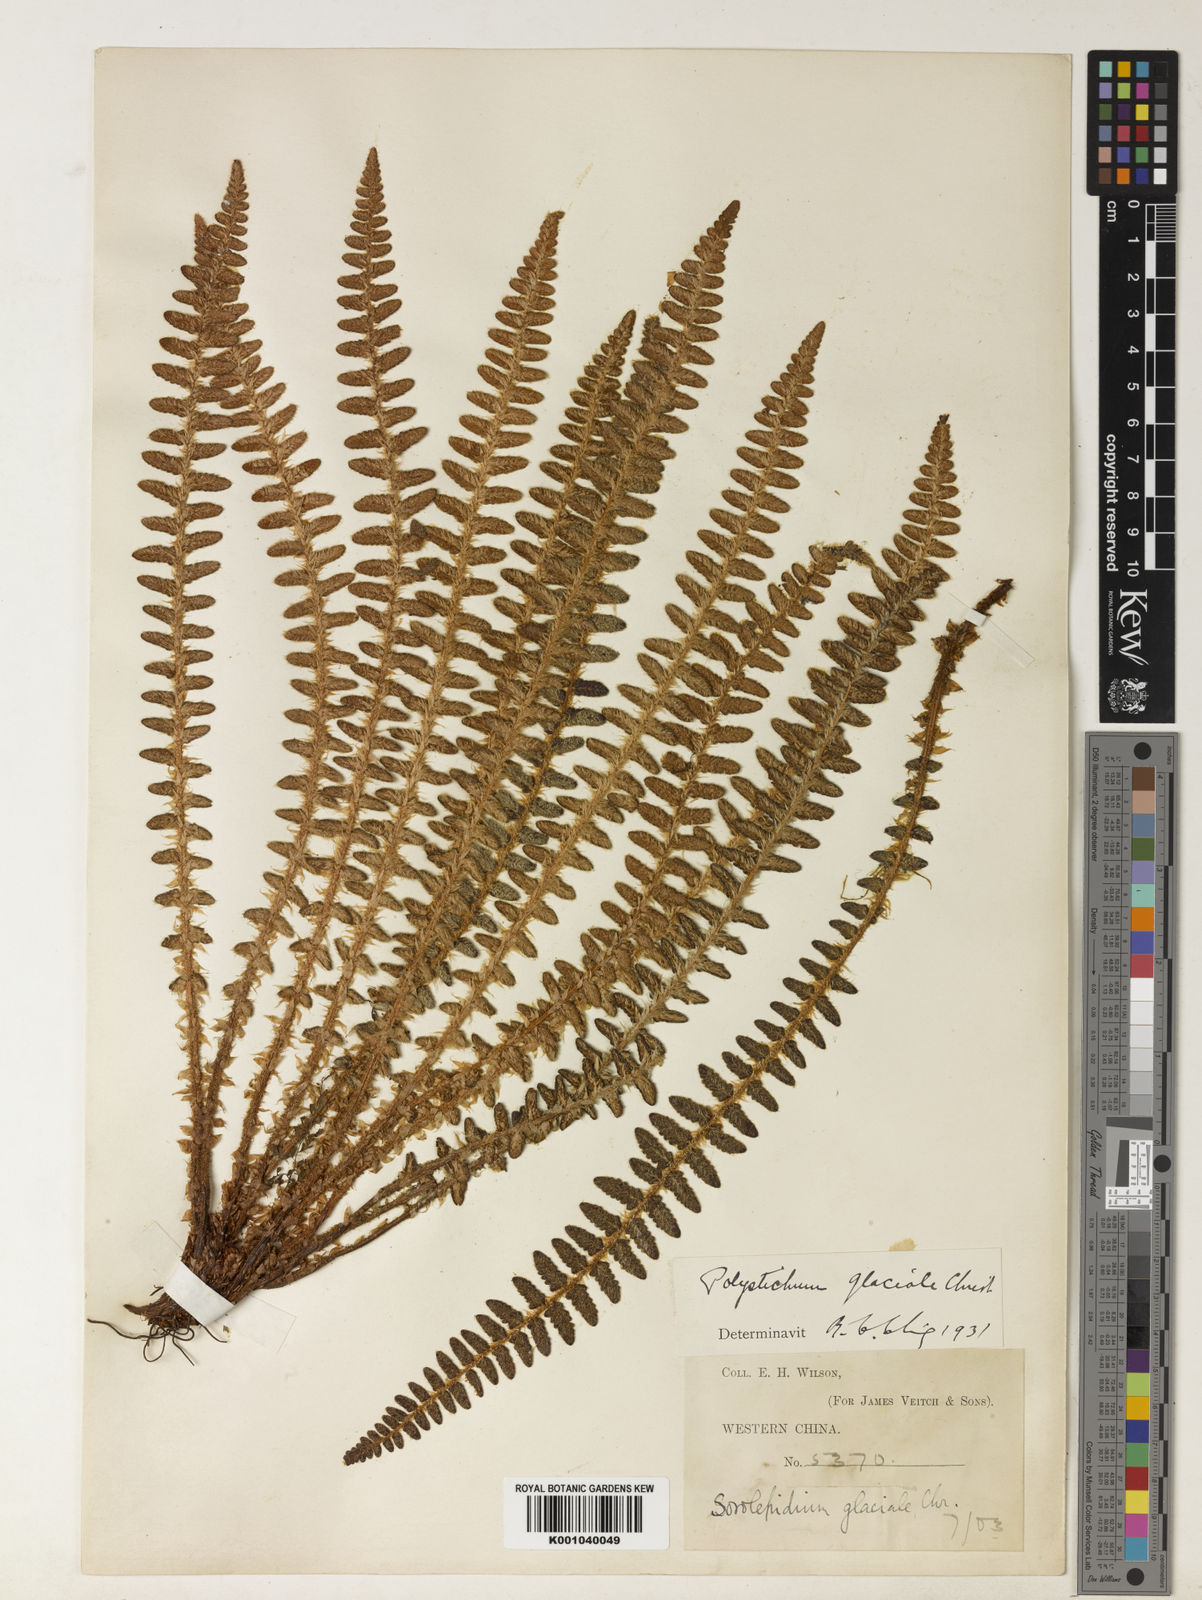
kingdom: Plantae
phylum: Tracheophyta
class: Polypodiopsida
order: Polypodiales
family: Dryopteridaceae
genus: Polystichum
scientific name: Polystichum glaciale
